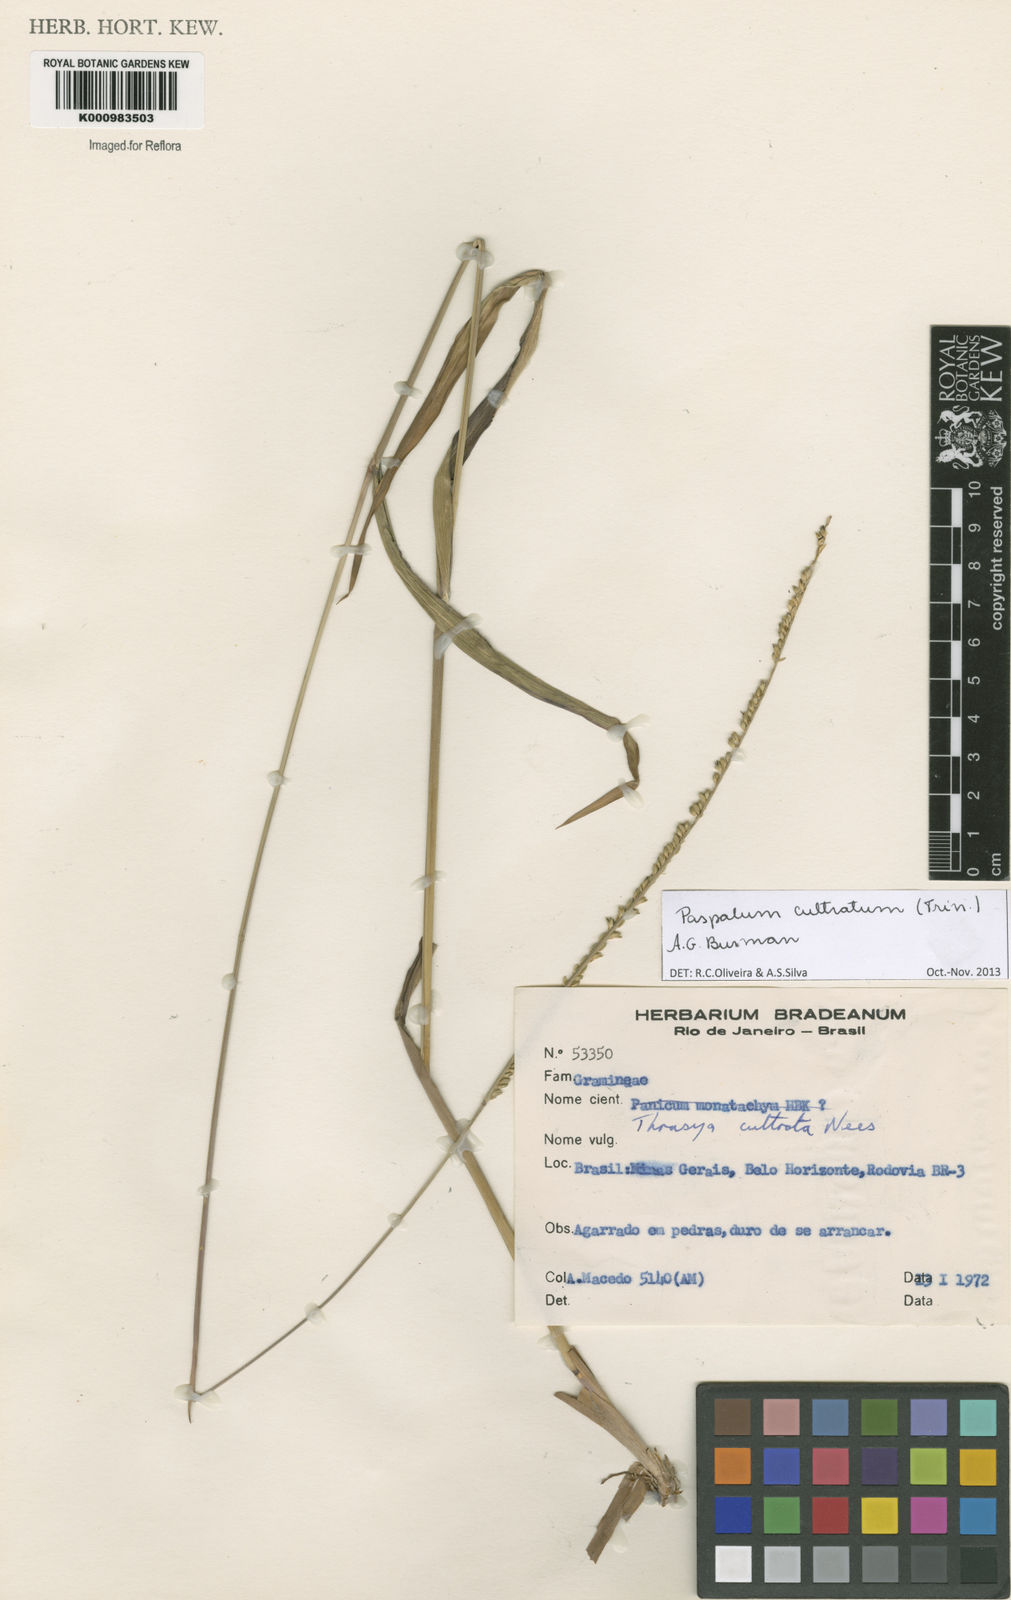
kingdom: Plantae
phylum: Tracheophyta
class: Liliopsida
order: Poales
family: Poaceae
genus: Paspalum
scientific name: Paspalum
